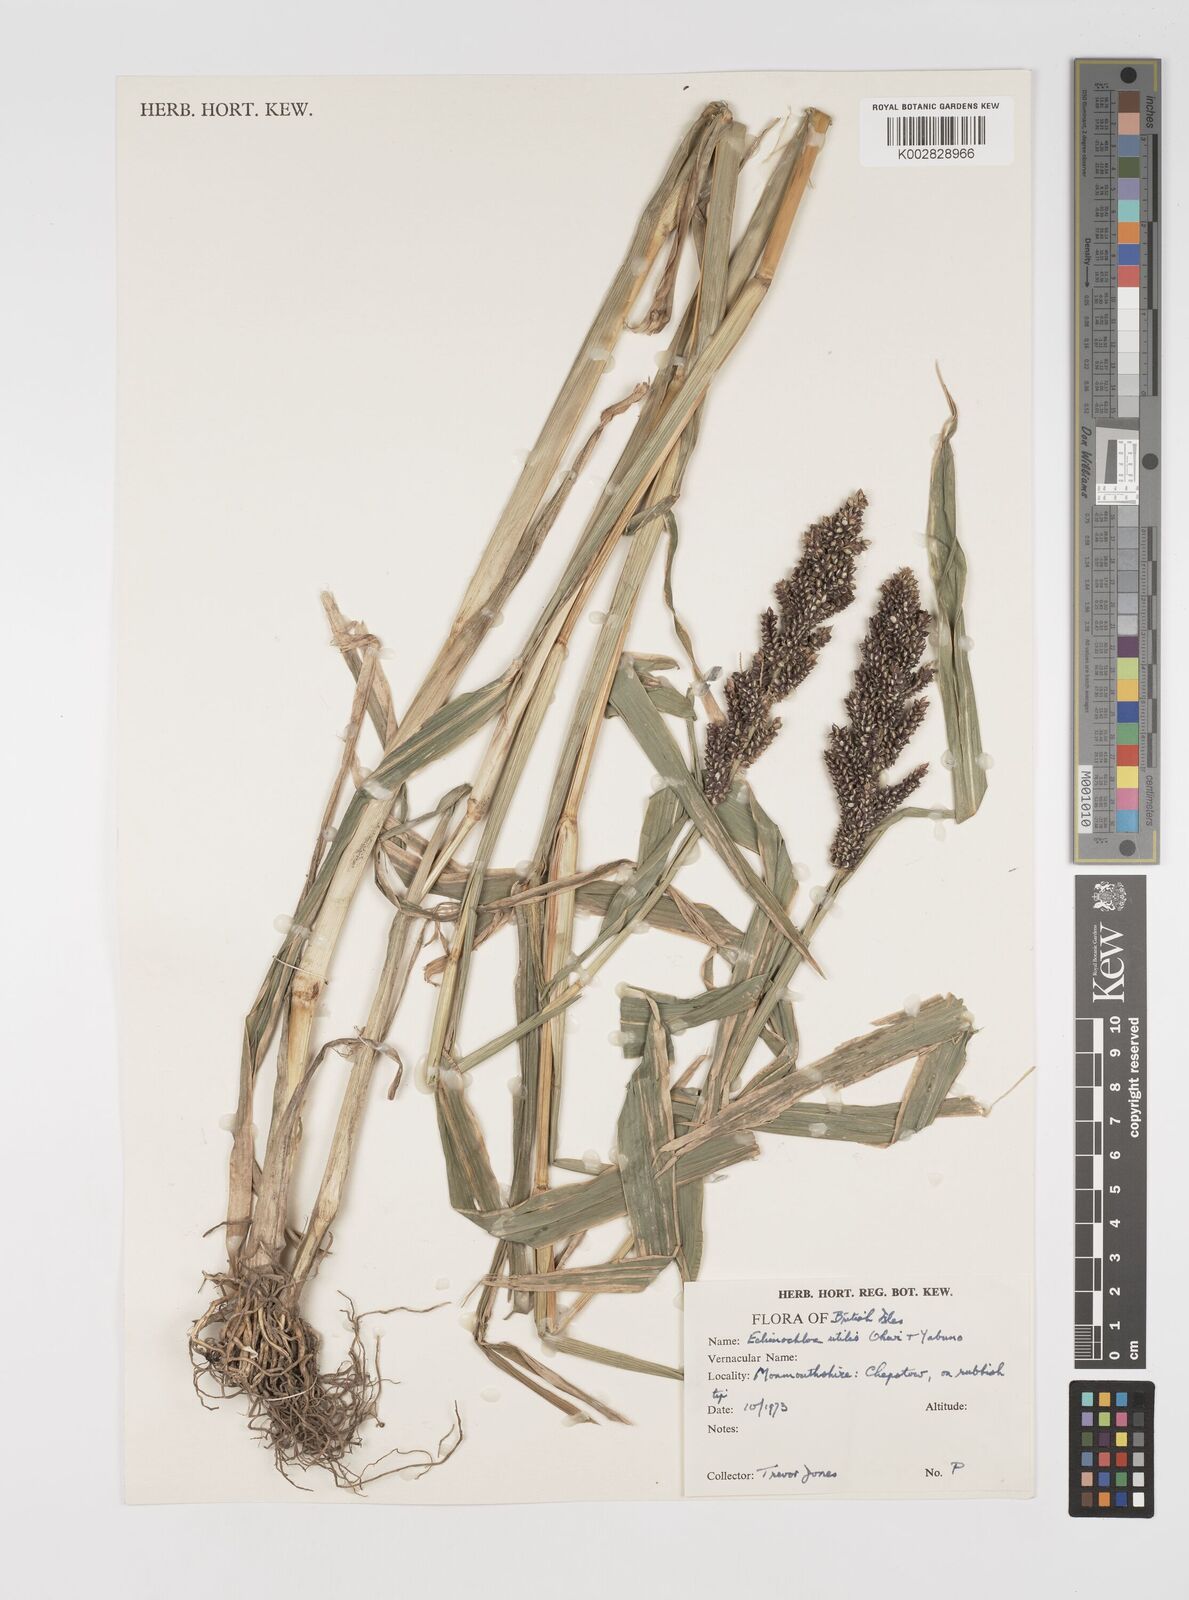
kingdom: Plantae
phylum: Tracheophyta
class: Liliopsida
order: Poales
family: Poaceae
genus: Echinochloa
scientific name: Echinochloa crus-galli
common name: Cockspur
